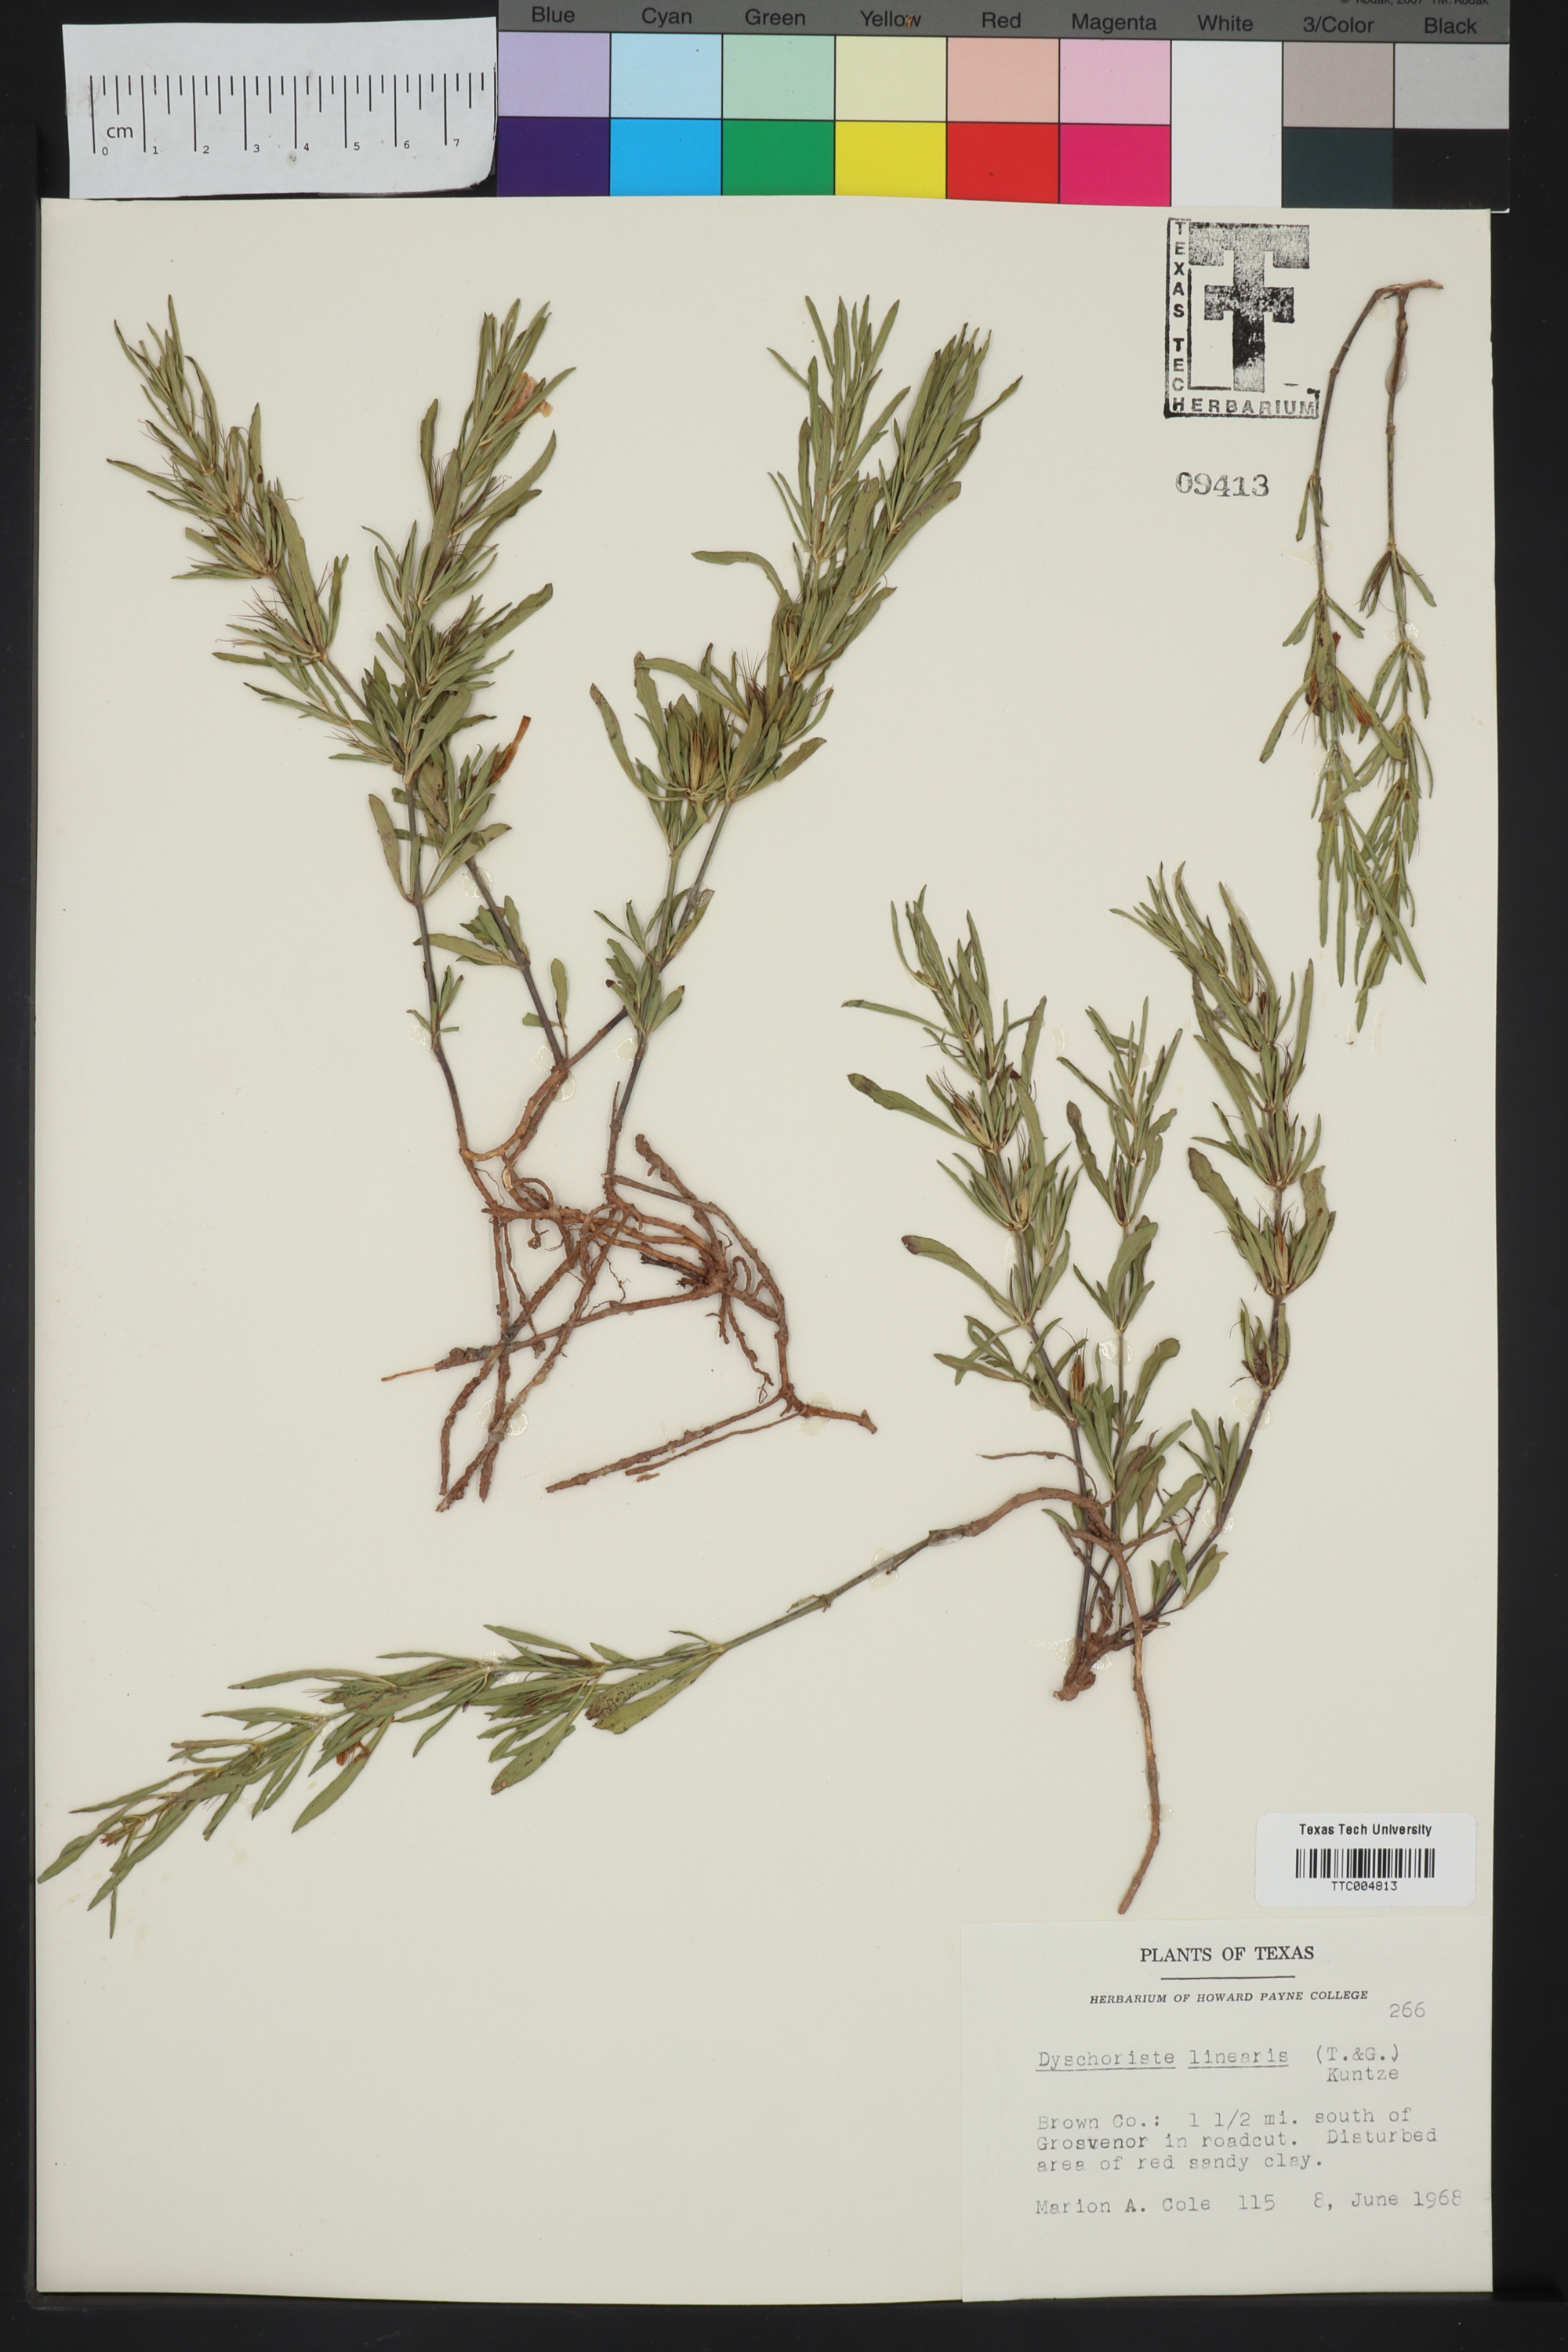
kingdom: Plantae
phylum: Tracheophyta
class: Magnoliopsida
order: Lamiales
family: Acanthaceae
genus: Dyschoriste
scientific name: Dyschoriste linearis
